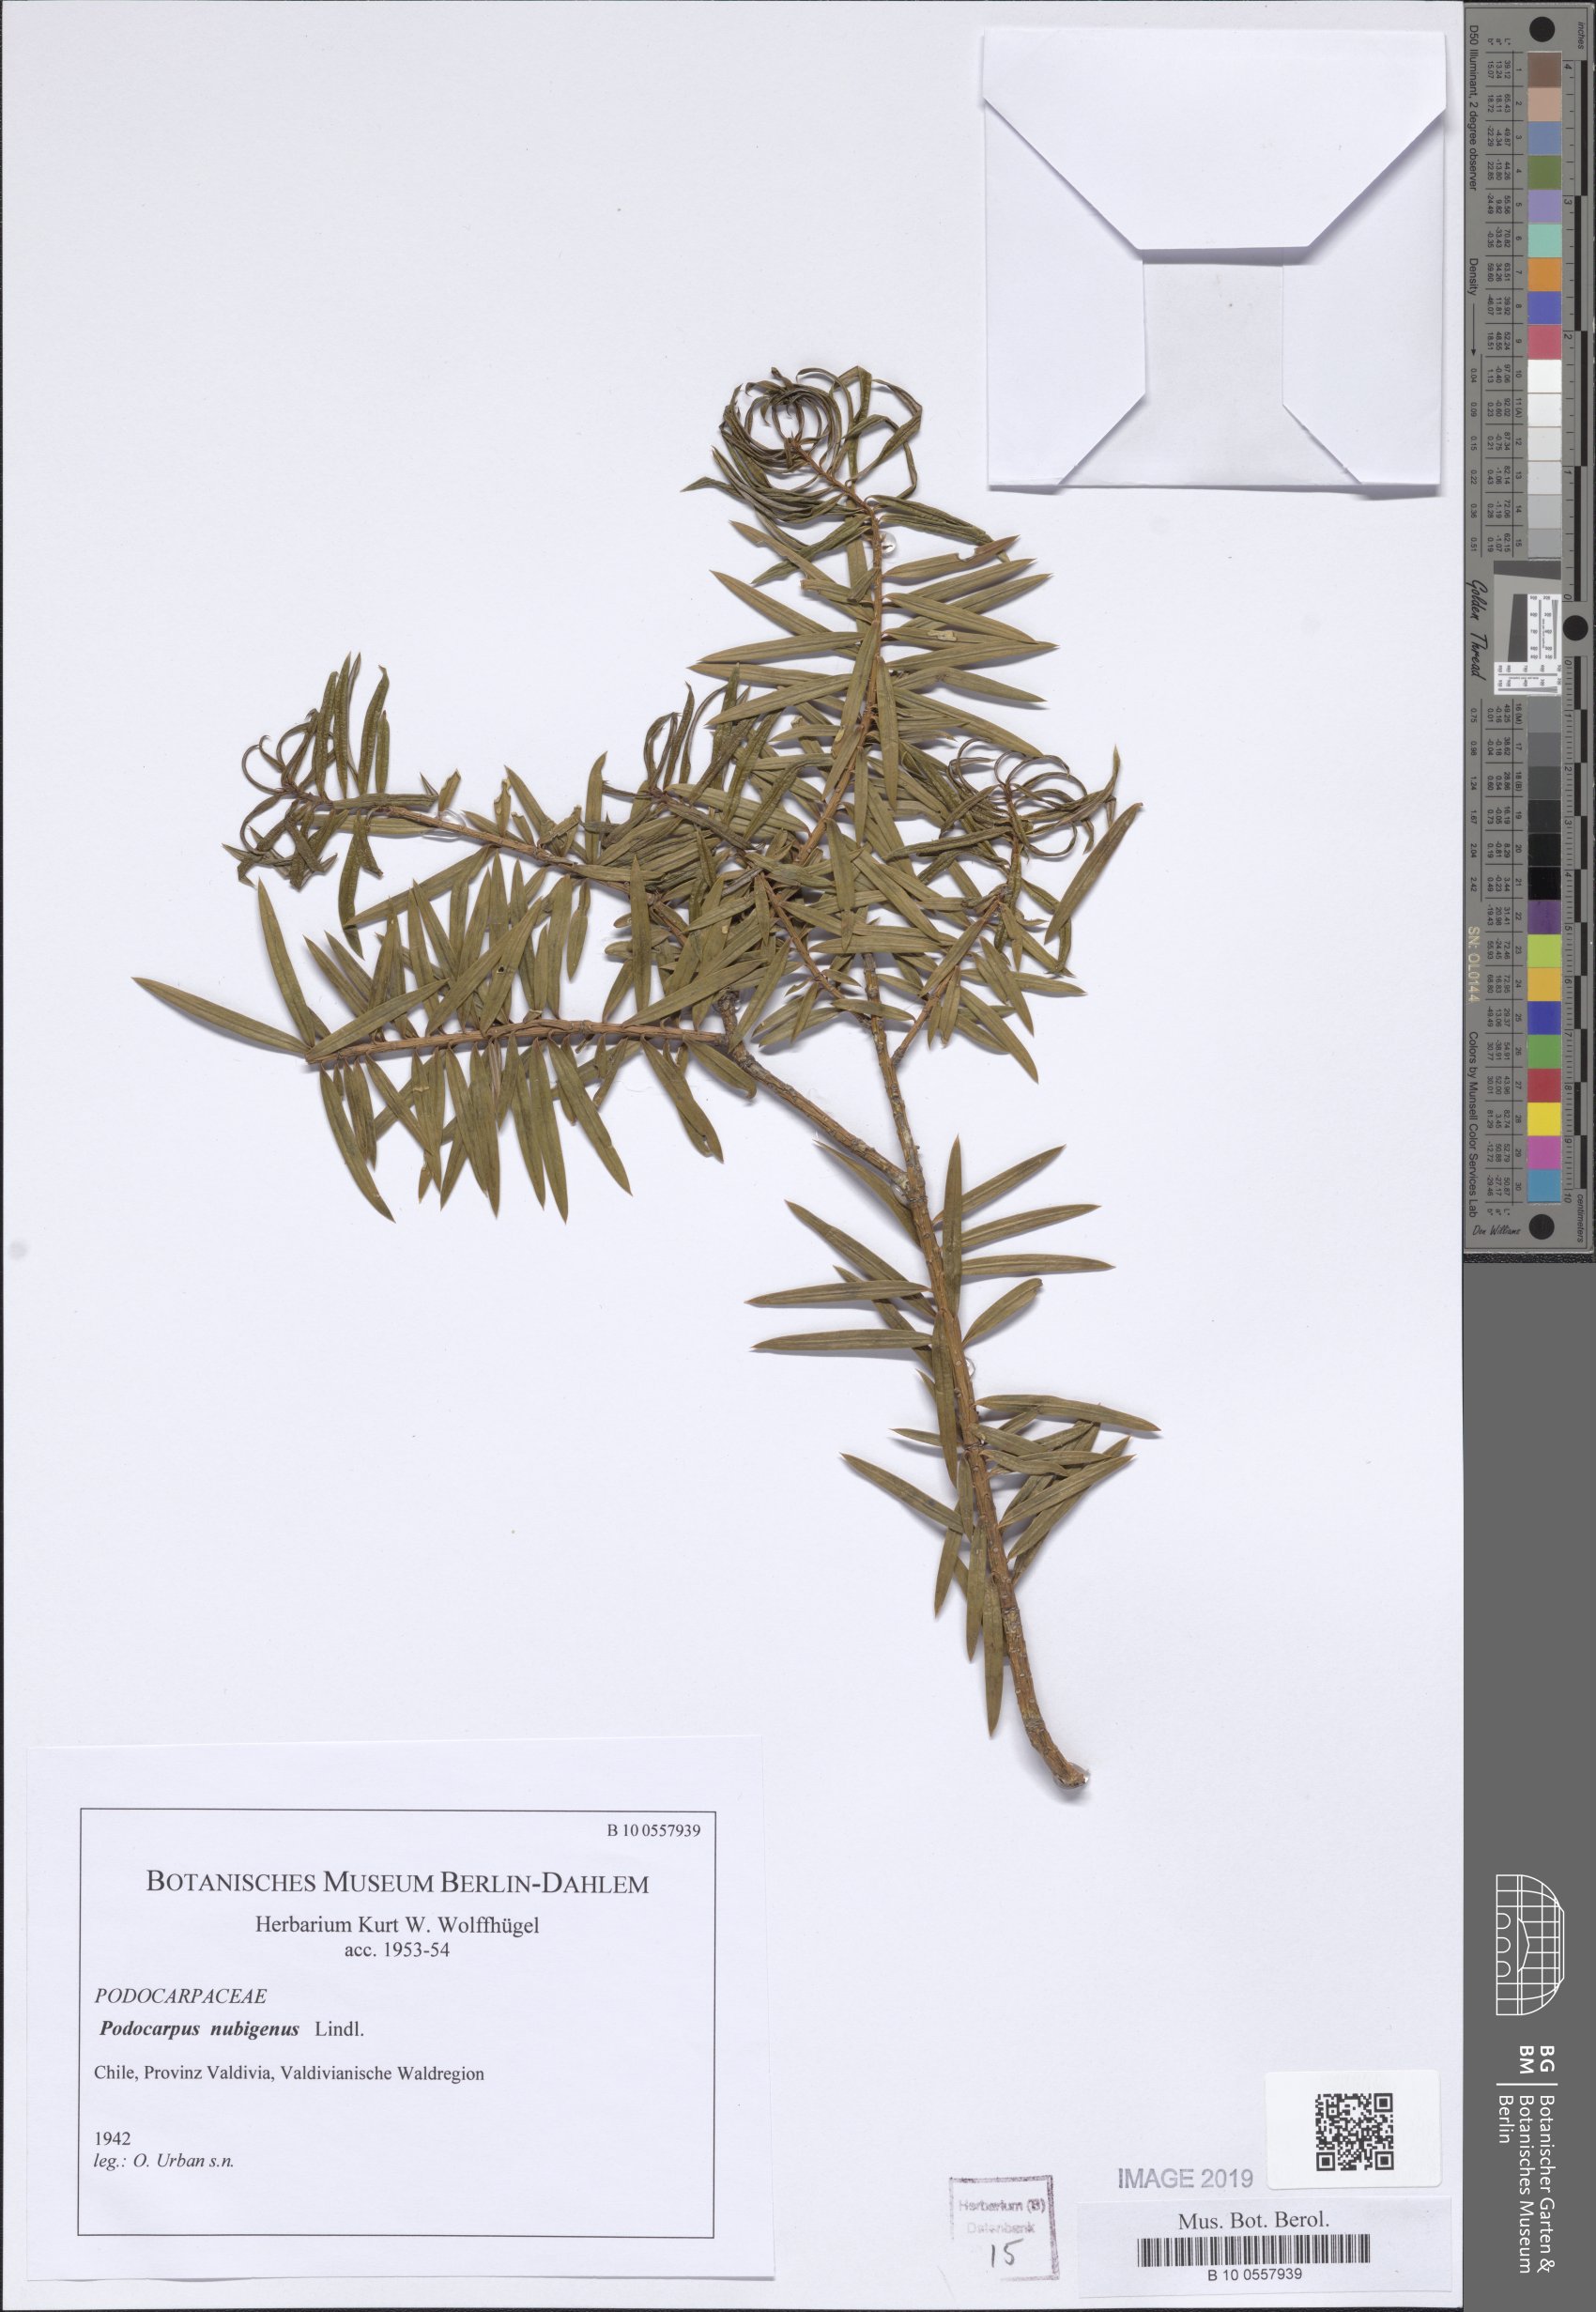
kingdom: Plantae
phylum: Tracheophyta
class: Pinopsida
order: Pinales
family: Podocarpaceae
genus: Podocarpus
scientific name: Podocarpus nubigenus
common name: Cloud podocarp
